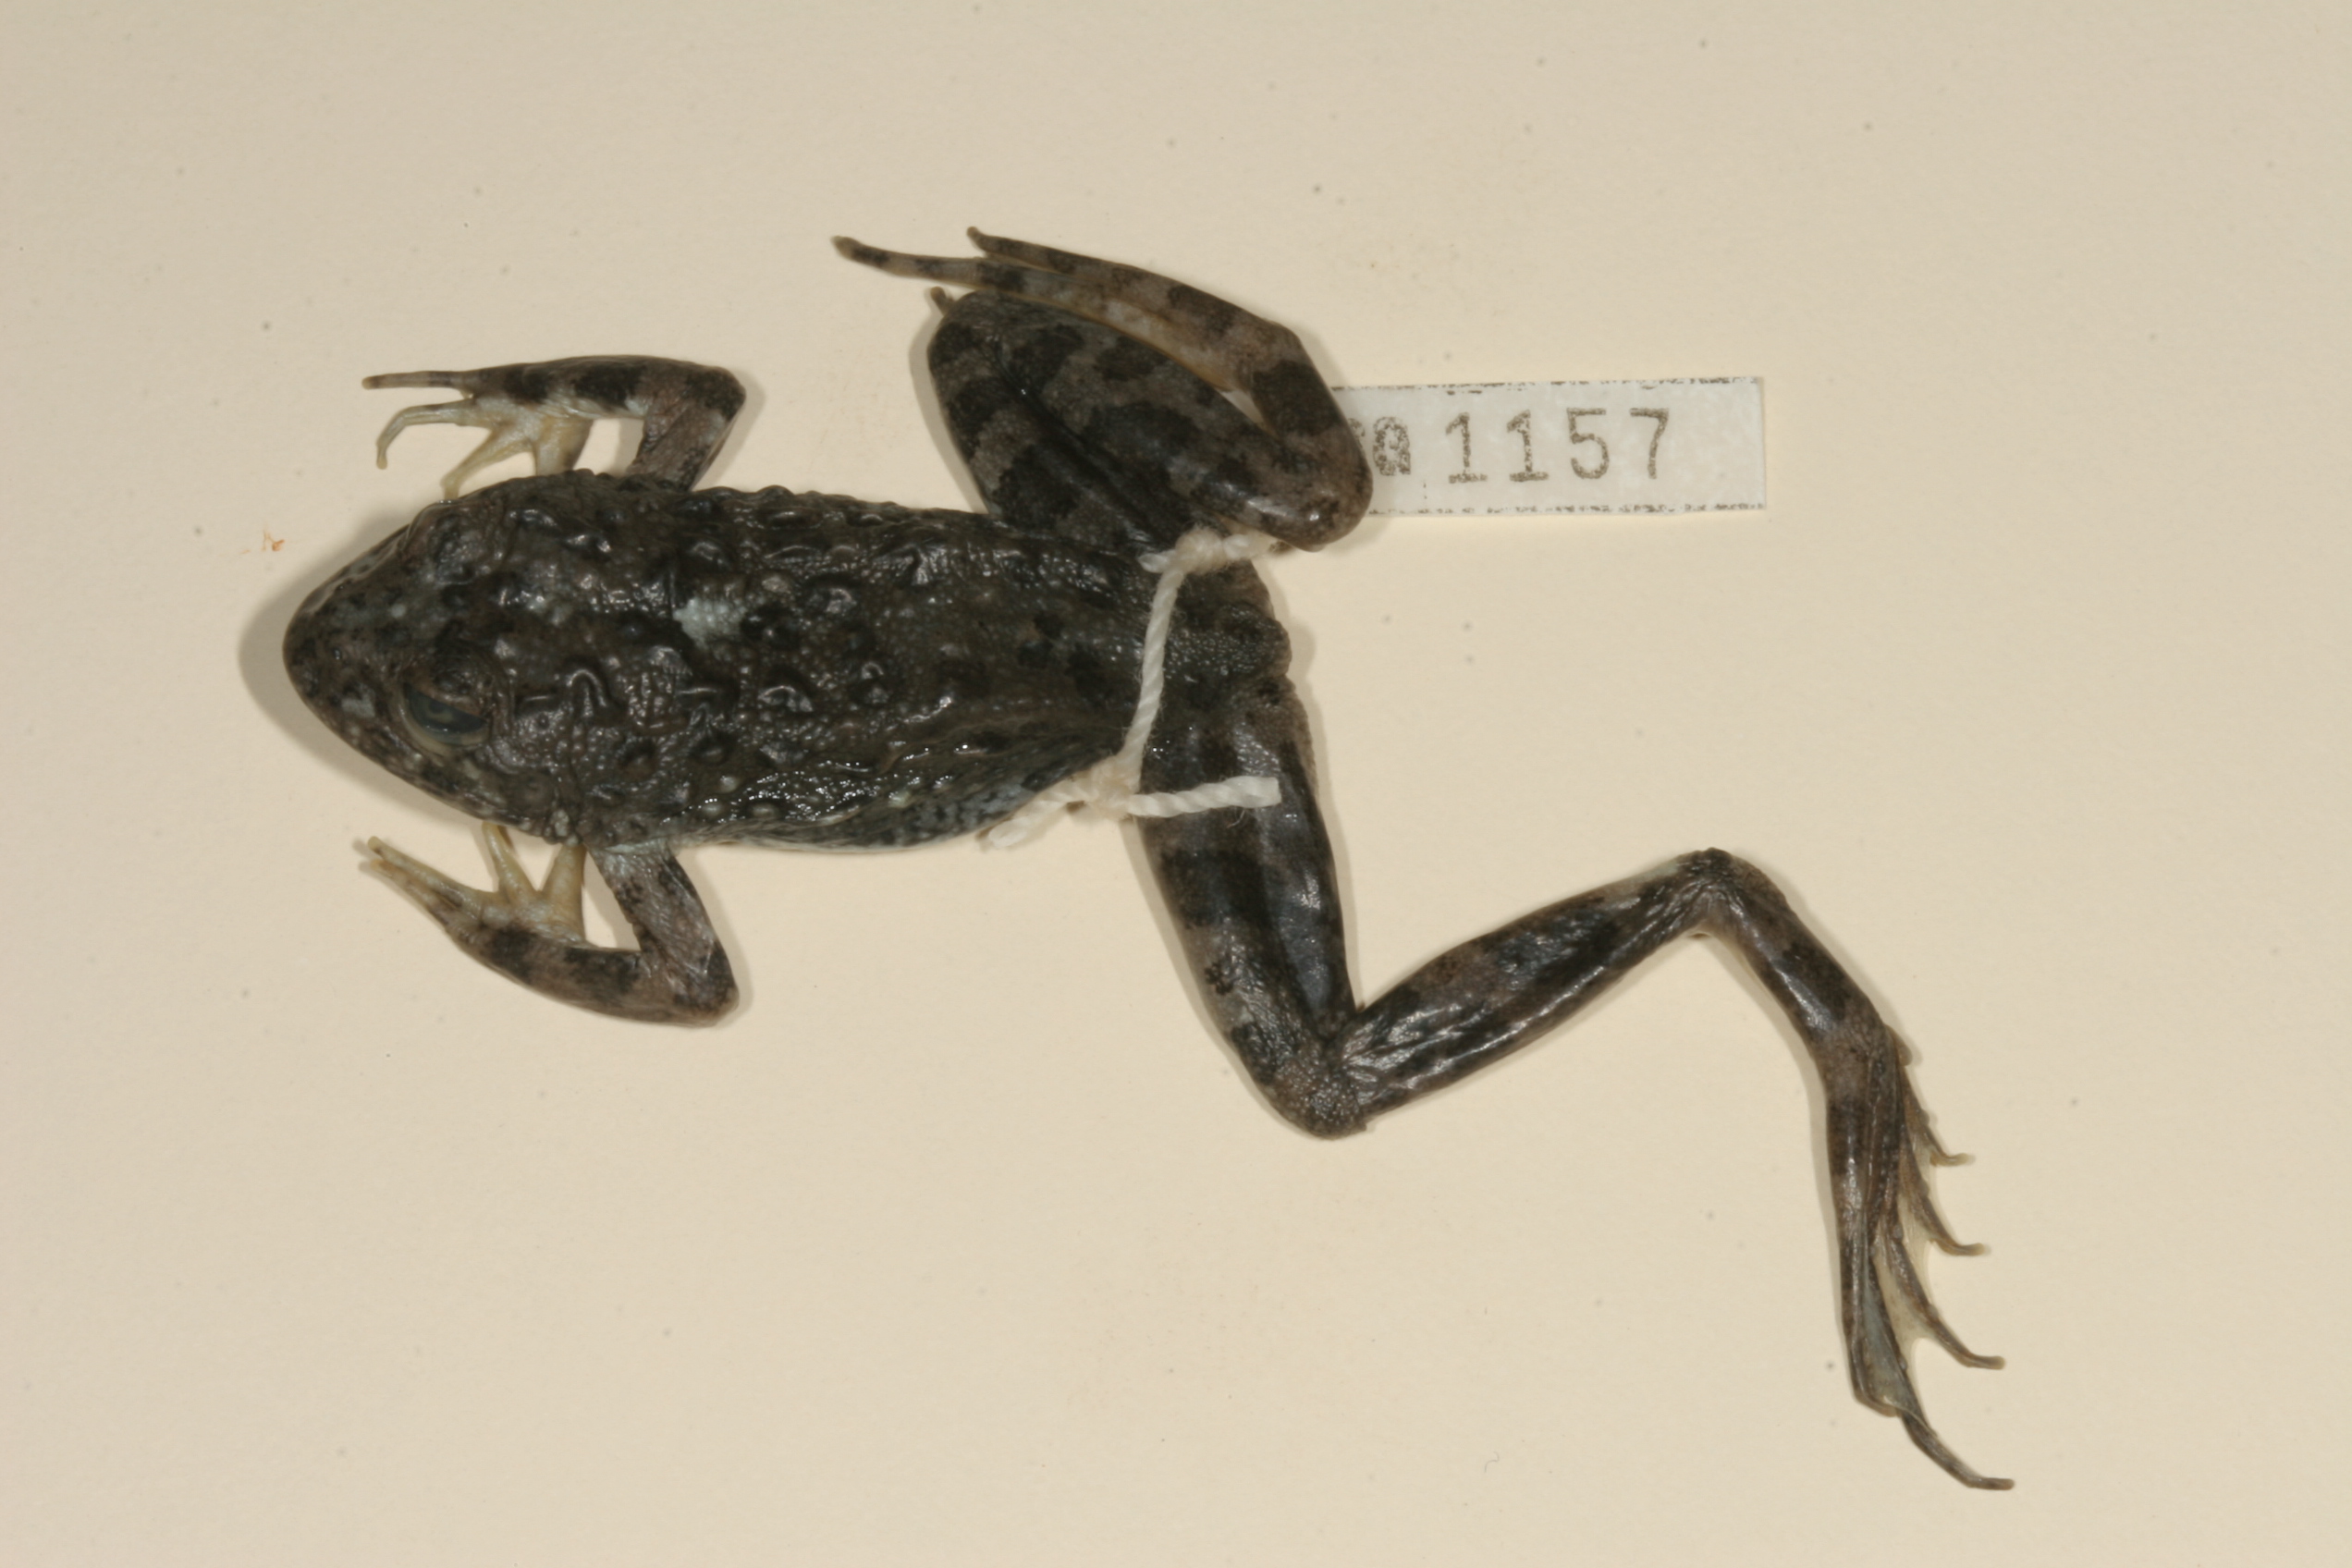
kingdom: Animalia
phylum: Chordata
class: Amphibia
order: Anura
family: Pyxicephalidae
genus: Amietia
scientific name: Amietia vertebralis
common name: Drakensberg stream frog
